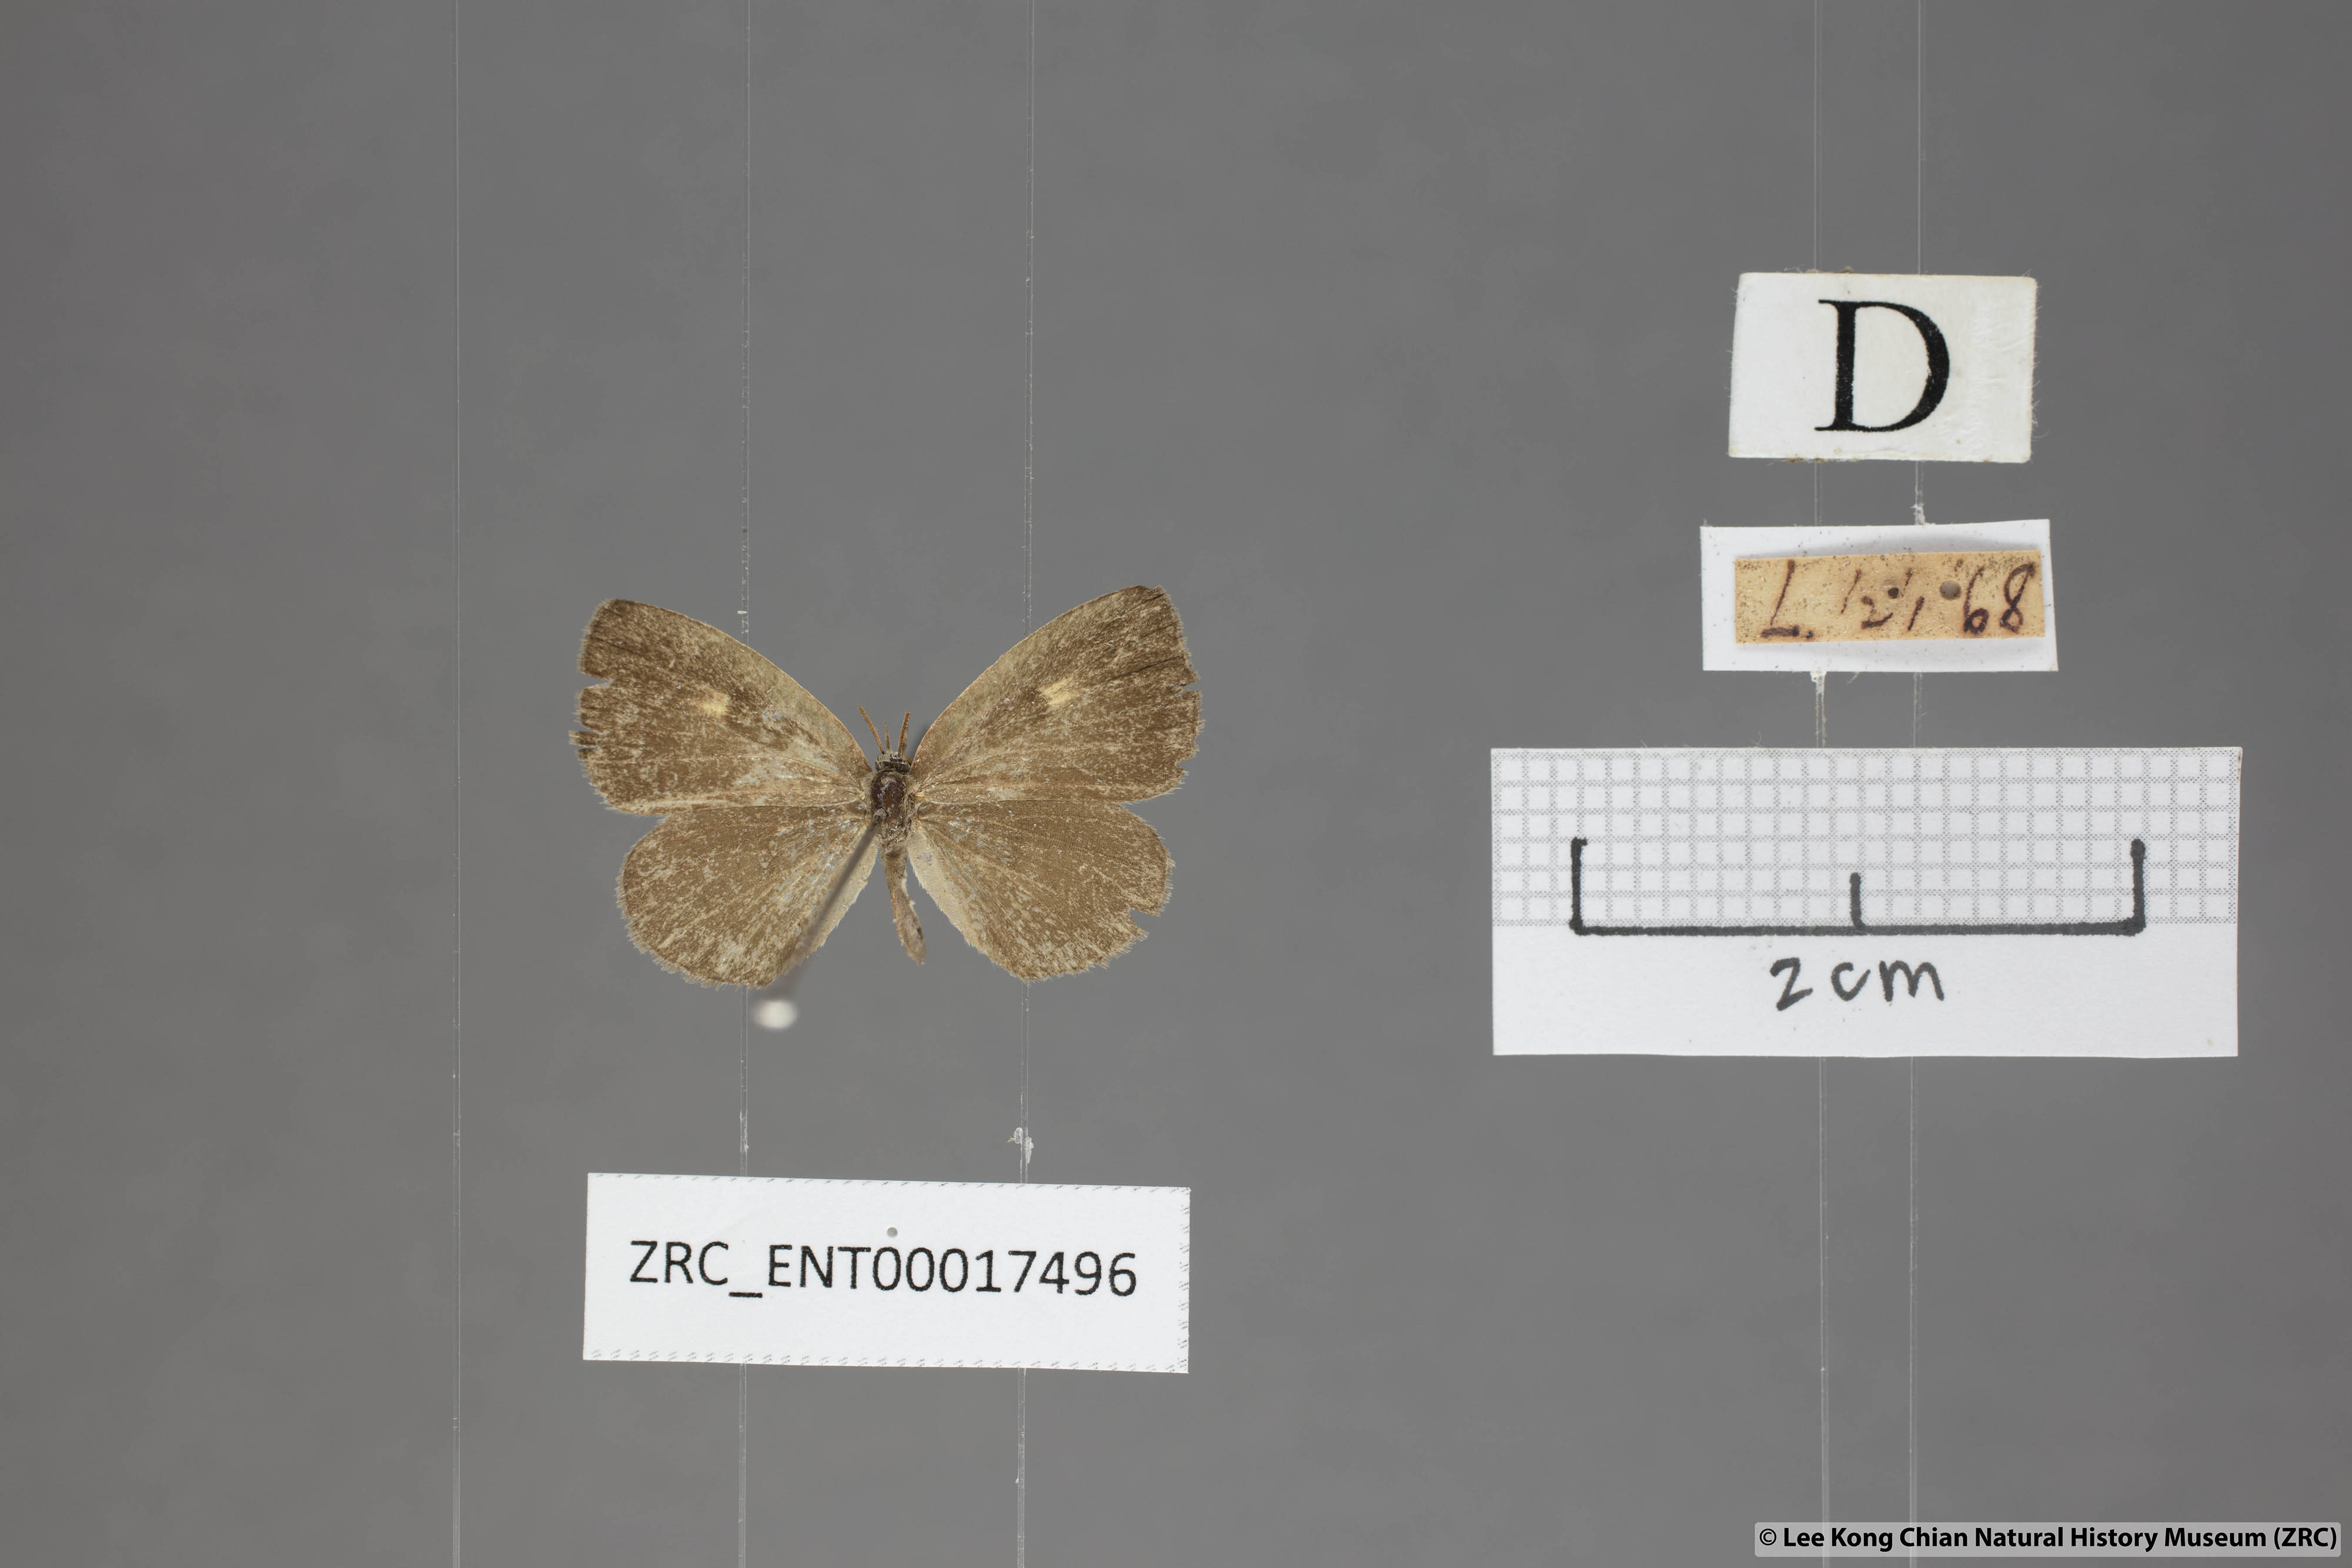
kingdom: Animalia
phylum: Arthropoda
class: Insecta
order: Lepidoptera
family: Lycaenidae
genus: Spalgis
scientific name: Spalgis epeus
